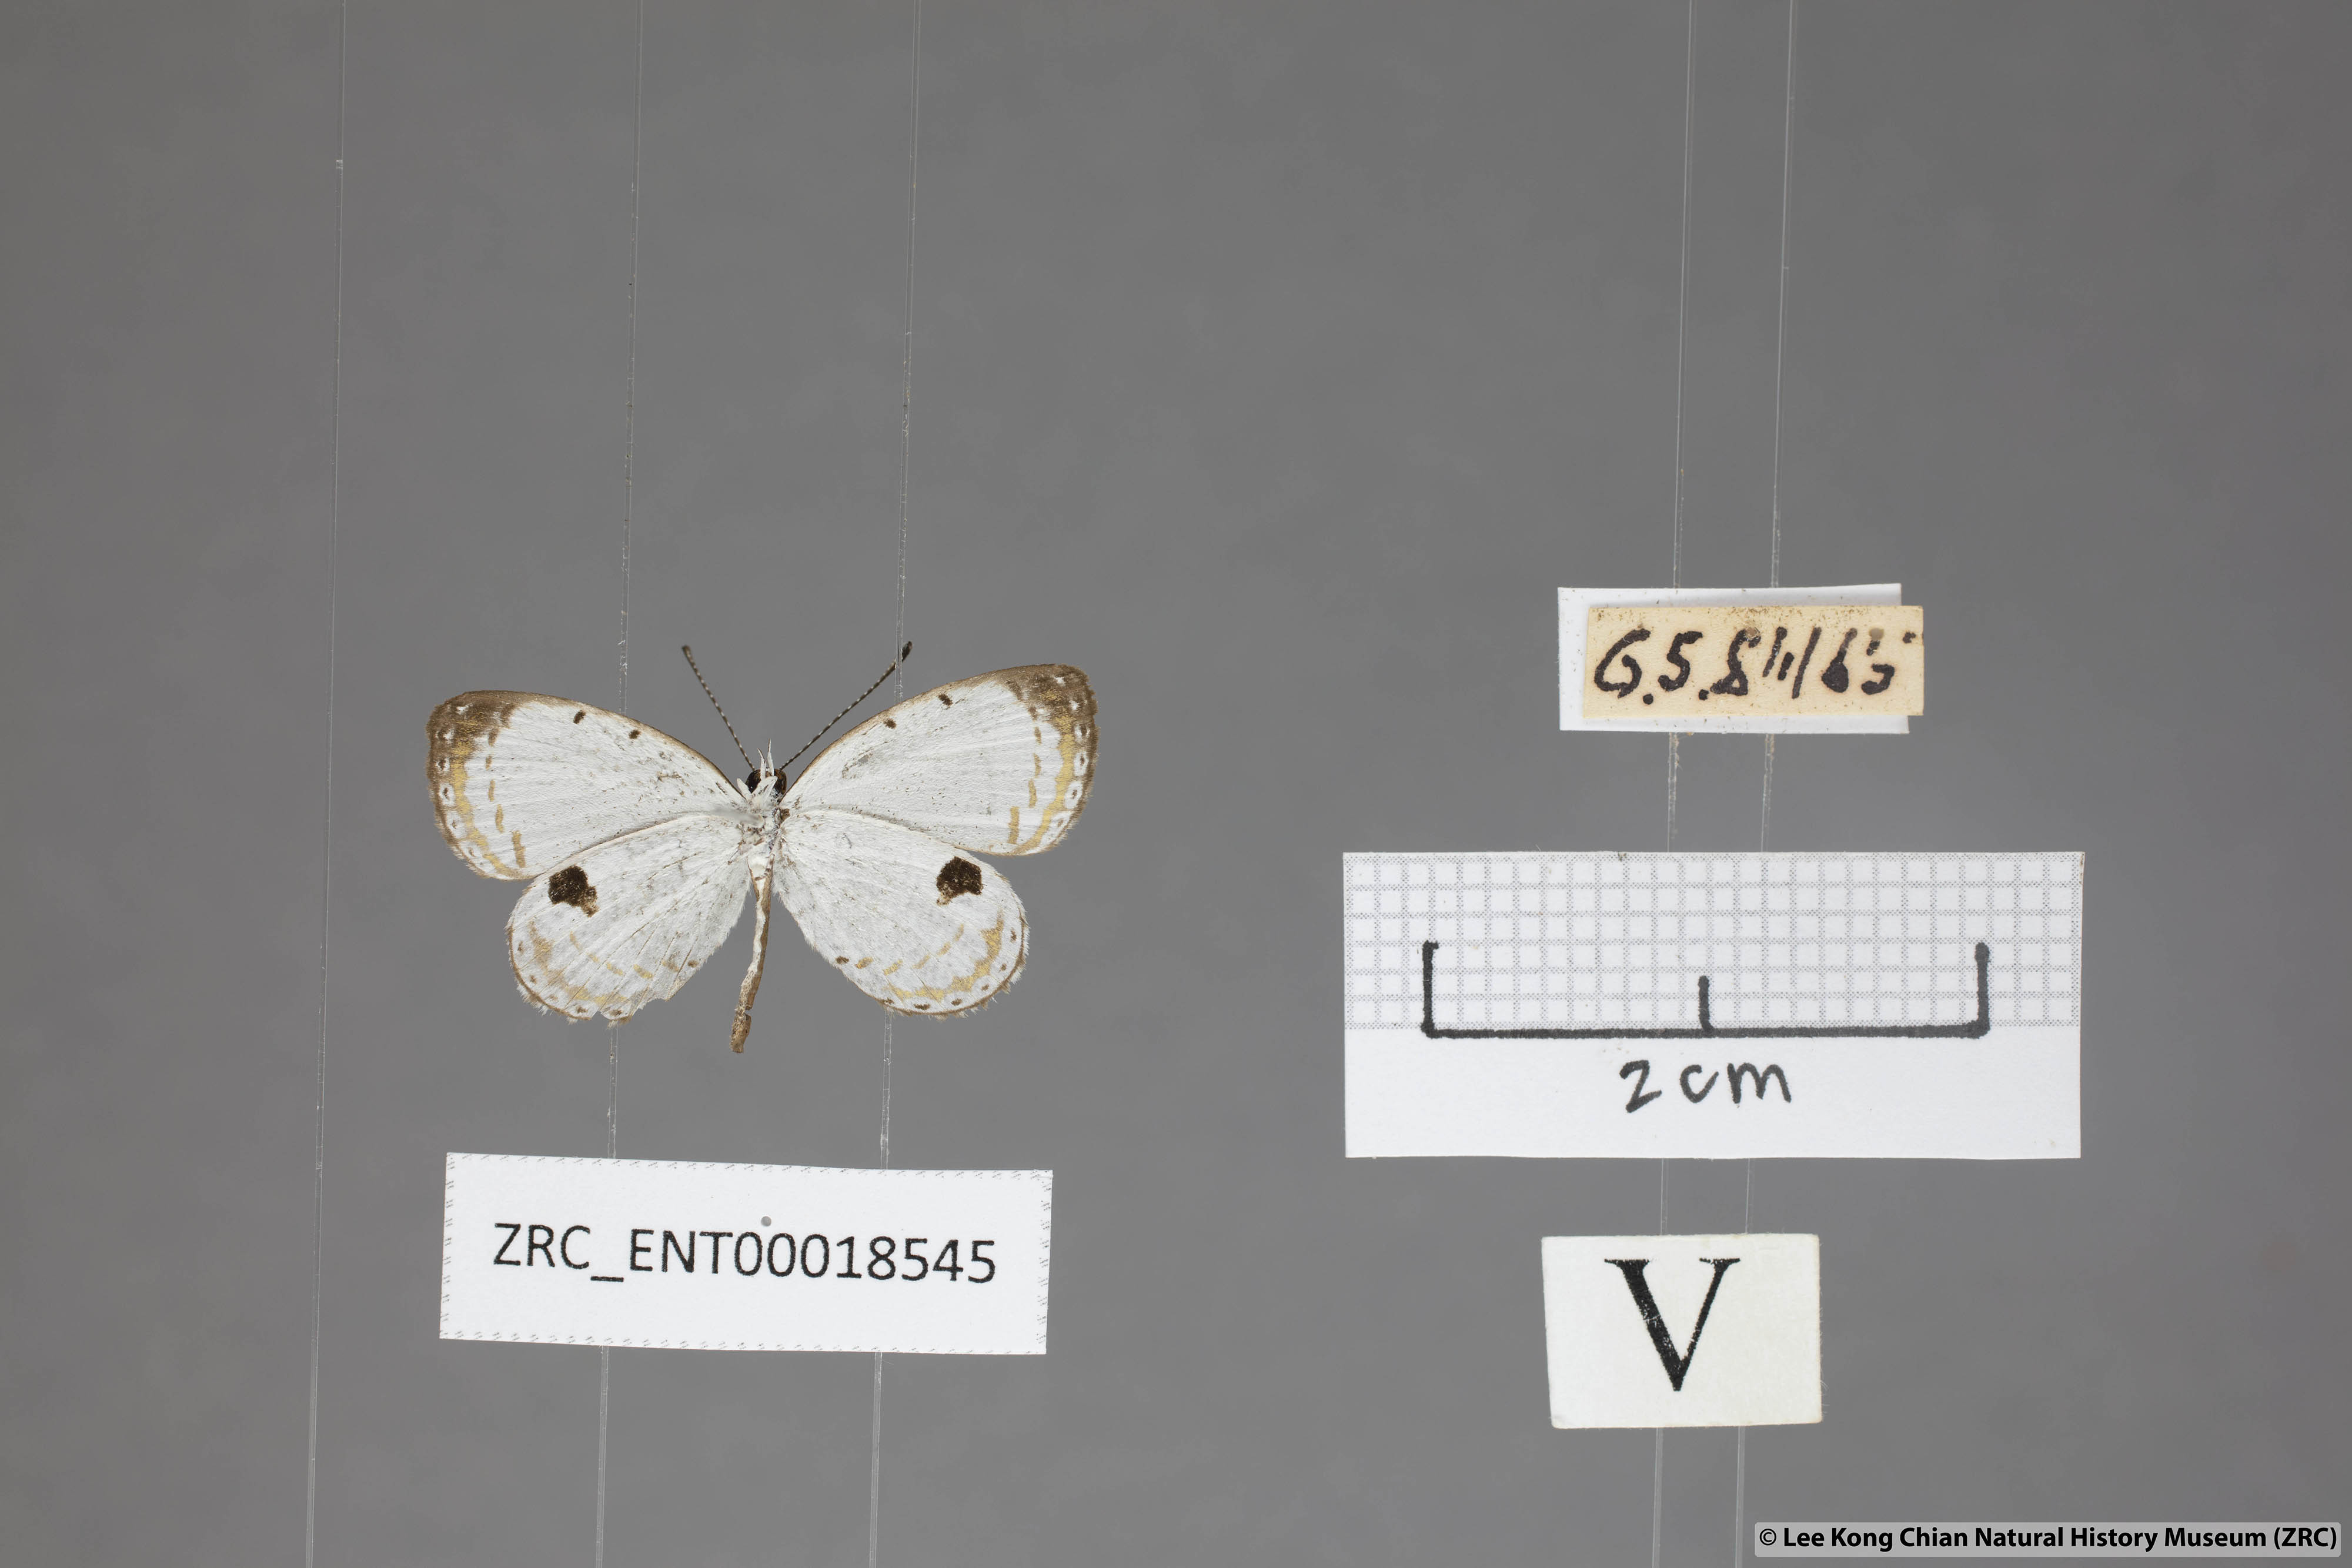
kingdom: Animalia
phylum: Arthropoda
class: Insecta
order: Lepidoptera
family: Lycaenidae
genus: Pithecops
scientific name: Pithecops corvus
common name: Forest quaker
